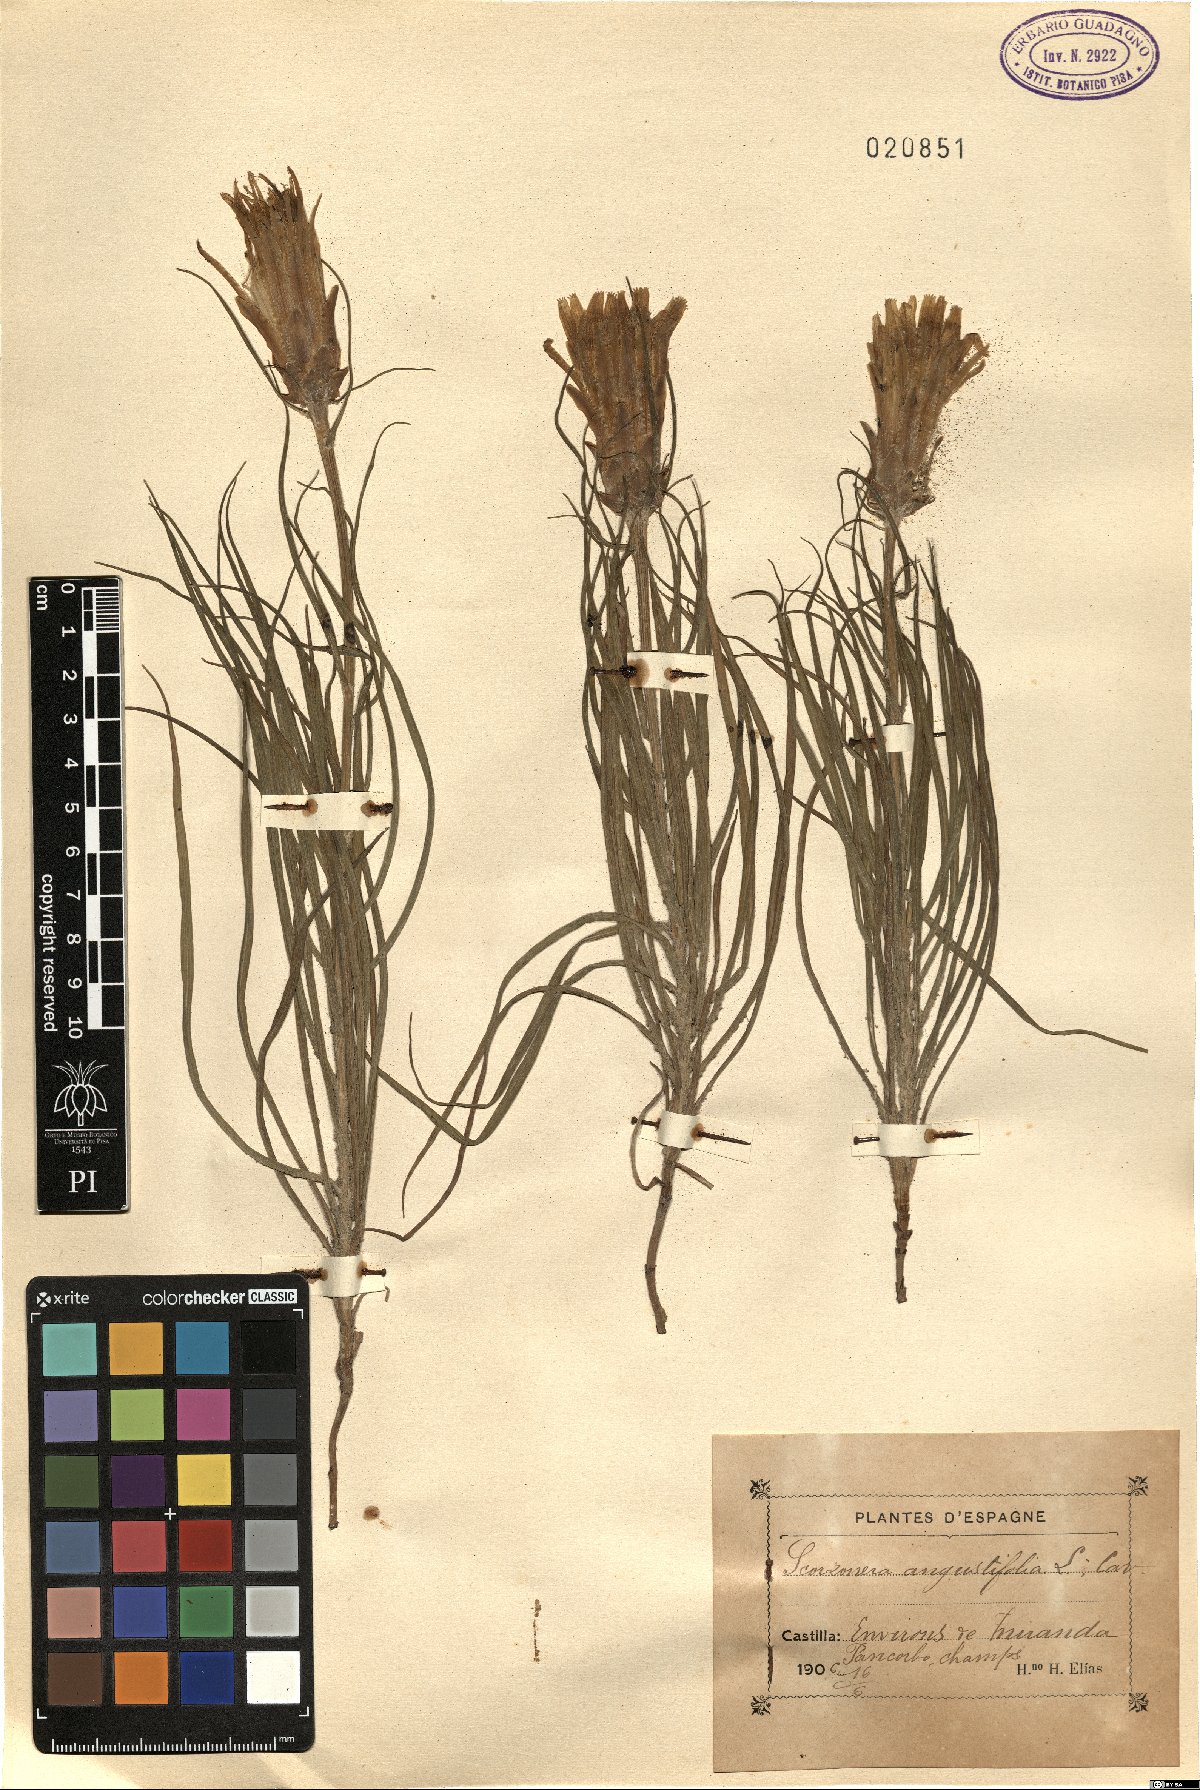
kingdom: Plantae
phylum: Tracheophyta
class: Magnoliopsida
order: Asterales
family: Asteraceae
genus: Scorzonera
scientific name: Scorzonera angustifolia
